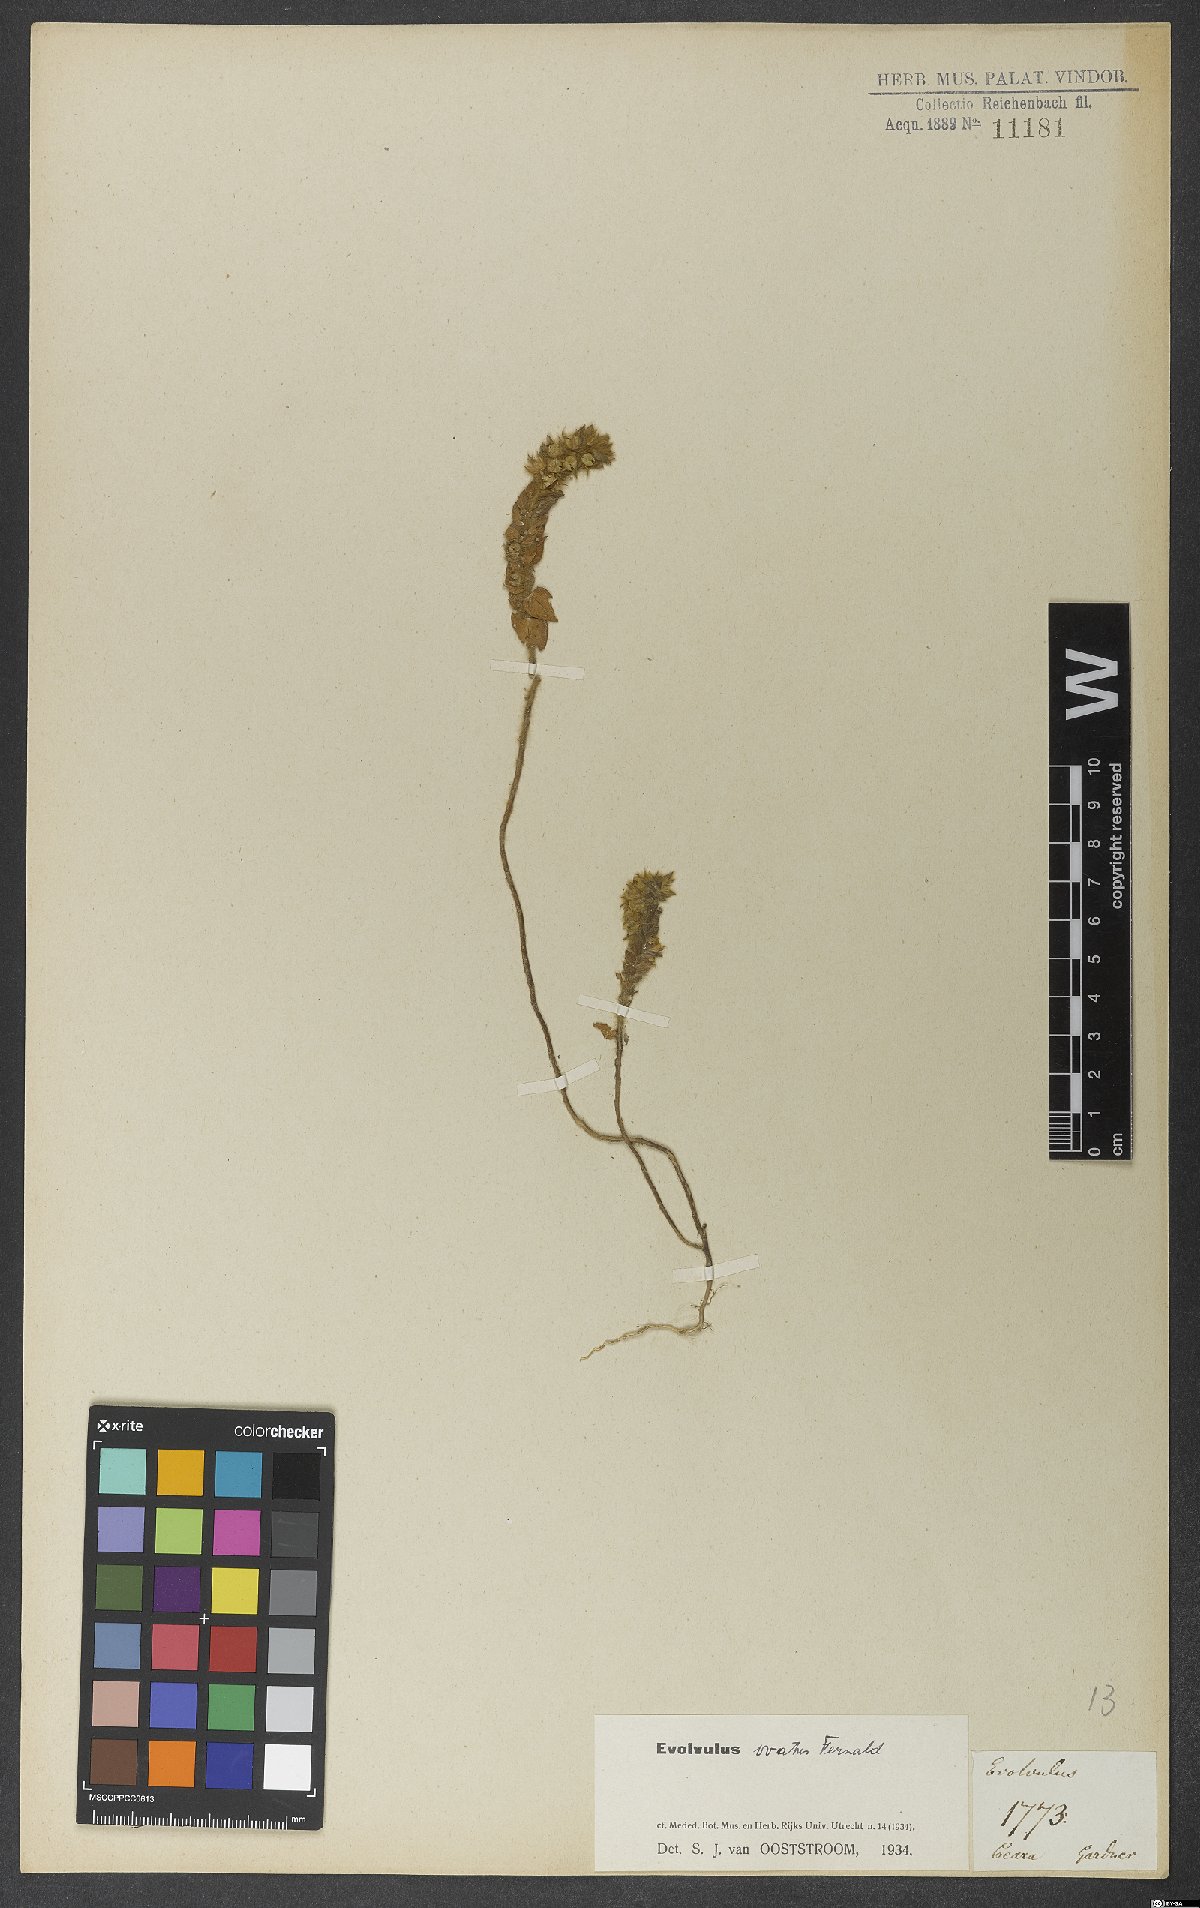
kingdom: Plantae
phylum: Tracheophyta
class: Magnoliopsida
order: Solanales
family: Convolvulaceae
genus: Evolvulus
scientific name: Evolvulus ovatus
